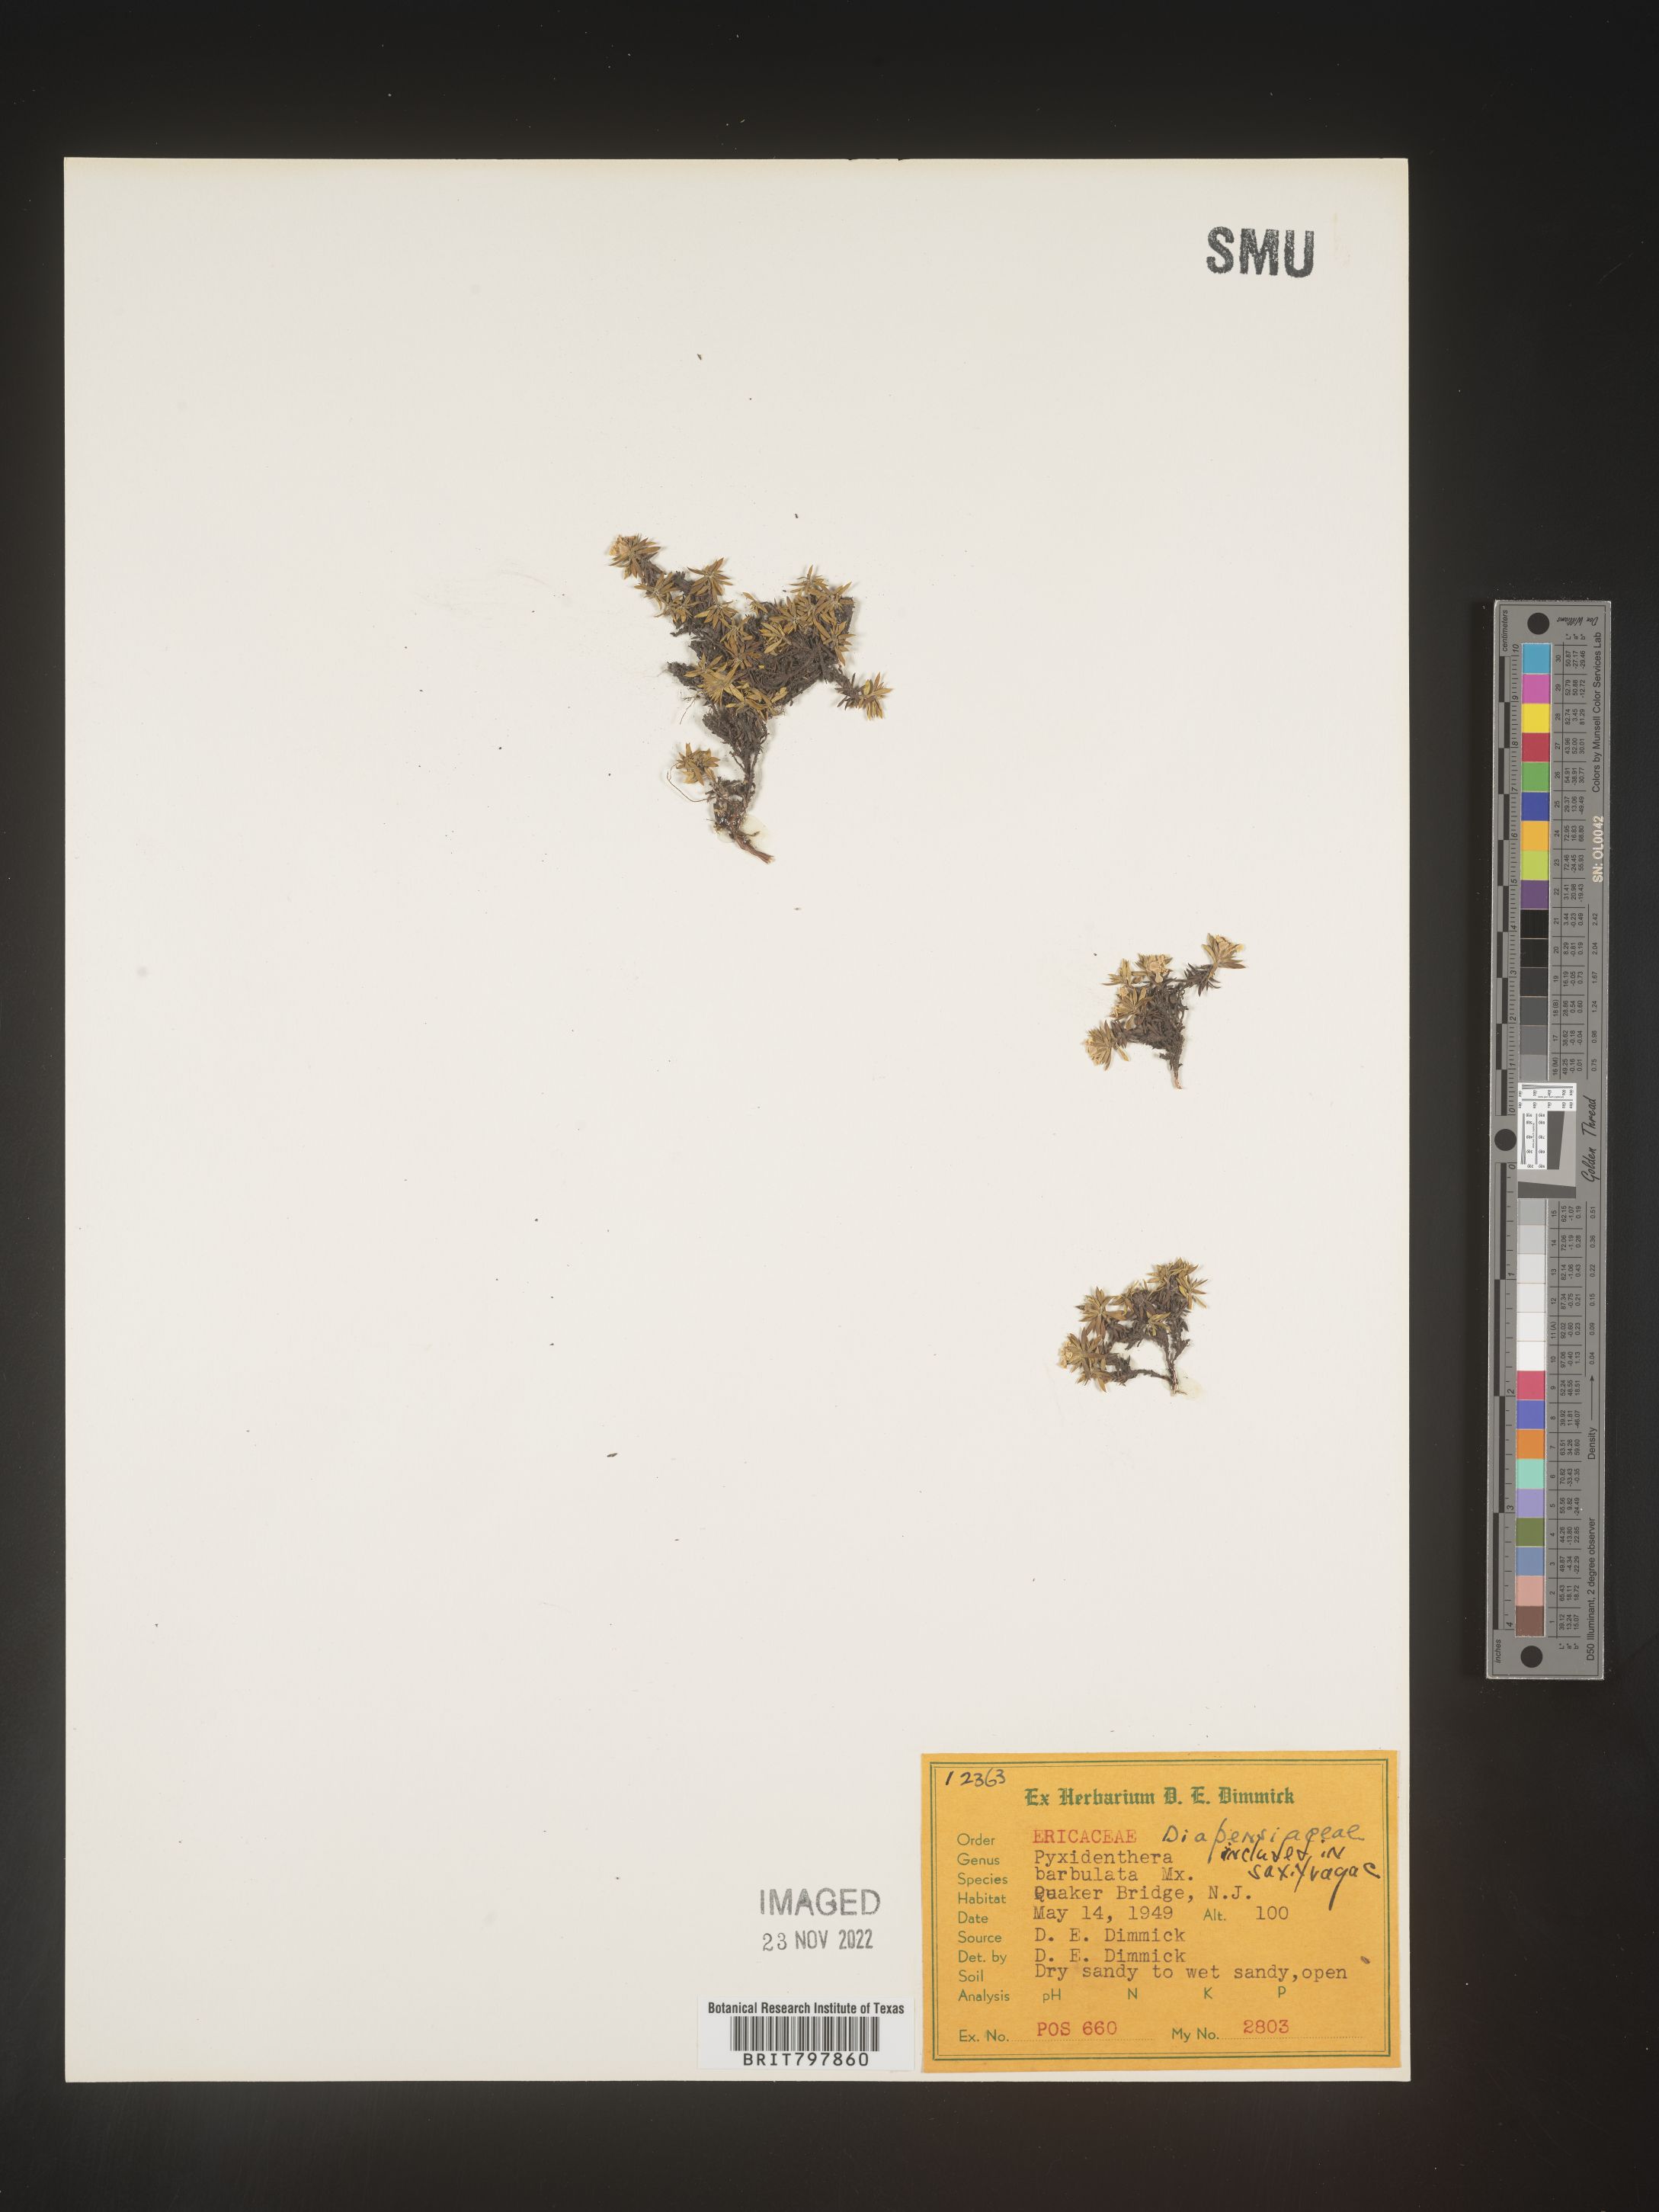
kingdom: Plantae
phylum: Tracheophyta
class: Magnoliopsida
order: Ericales
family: Diapensiaceae
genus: Pyxidanthera
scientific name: Pyxidanthera barbulata
